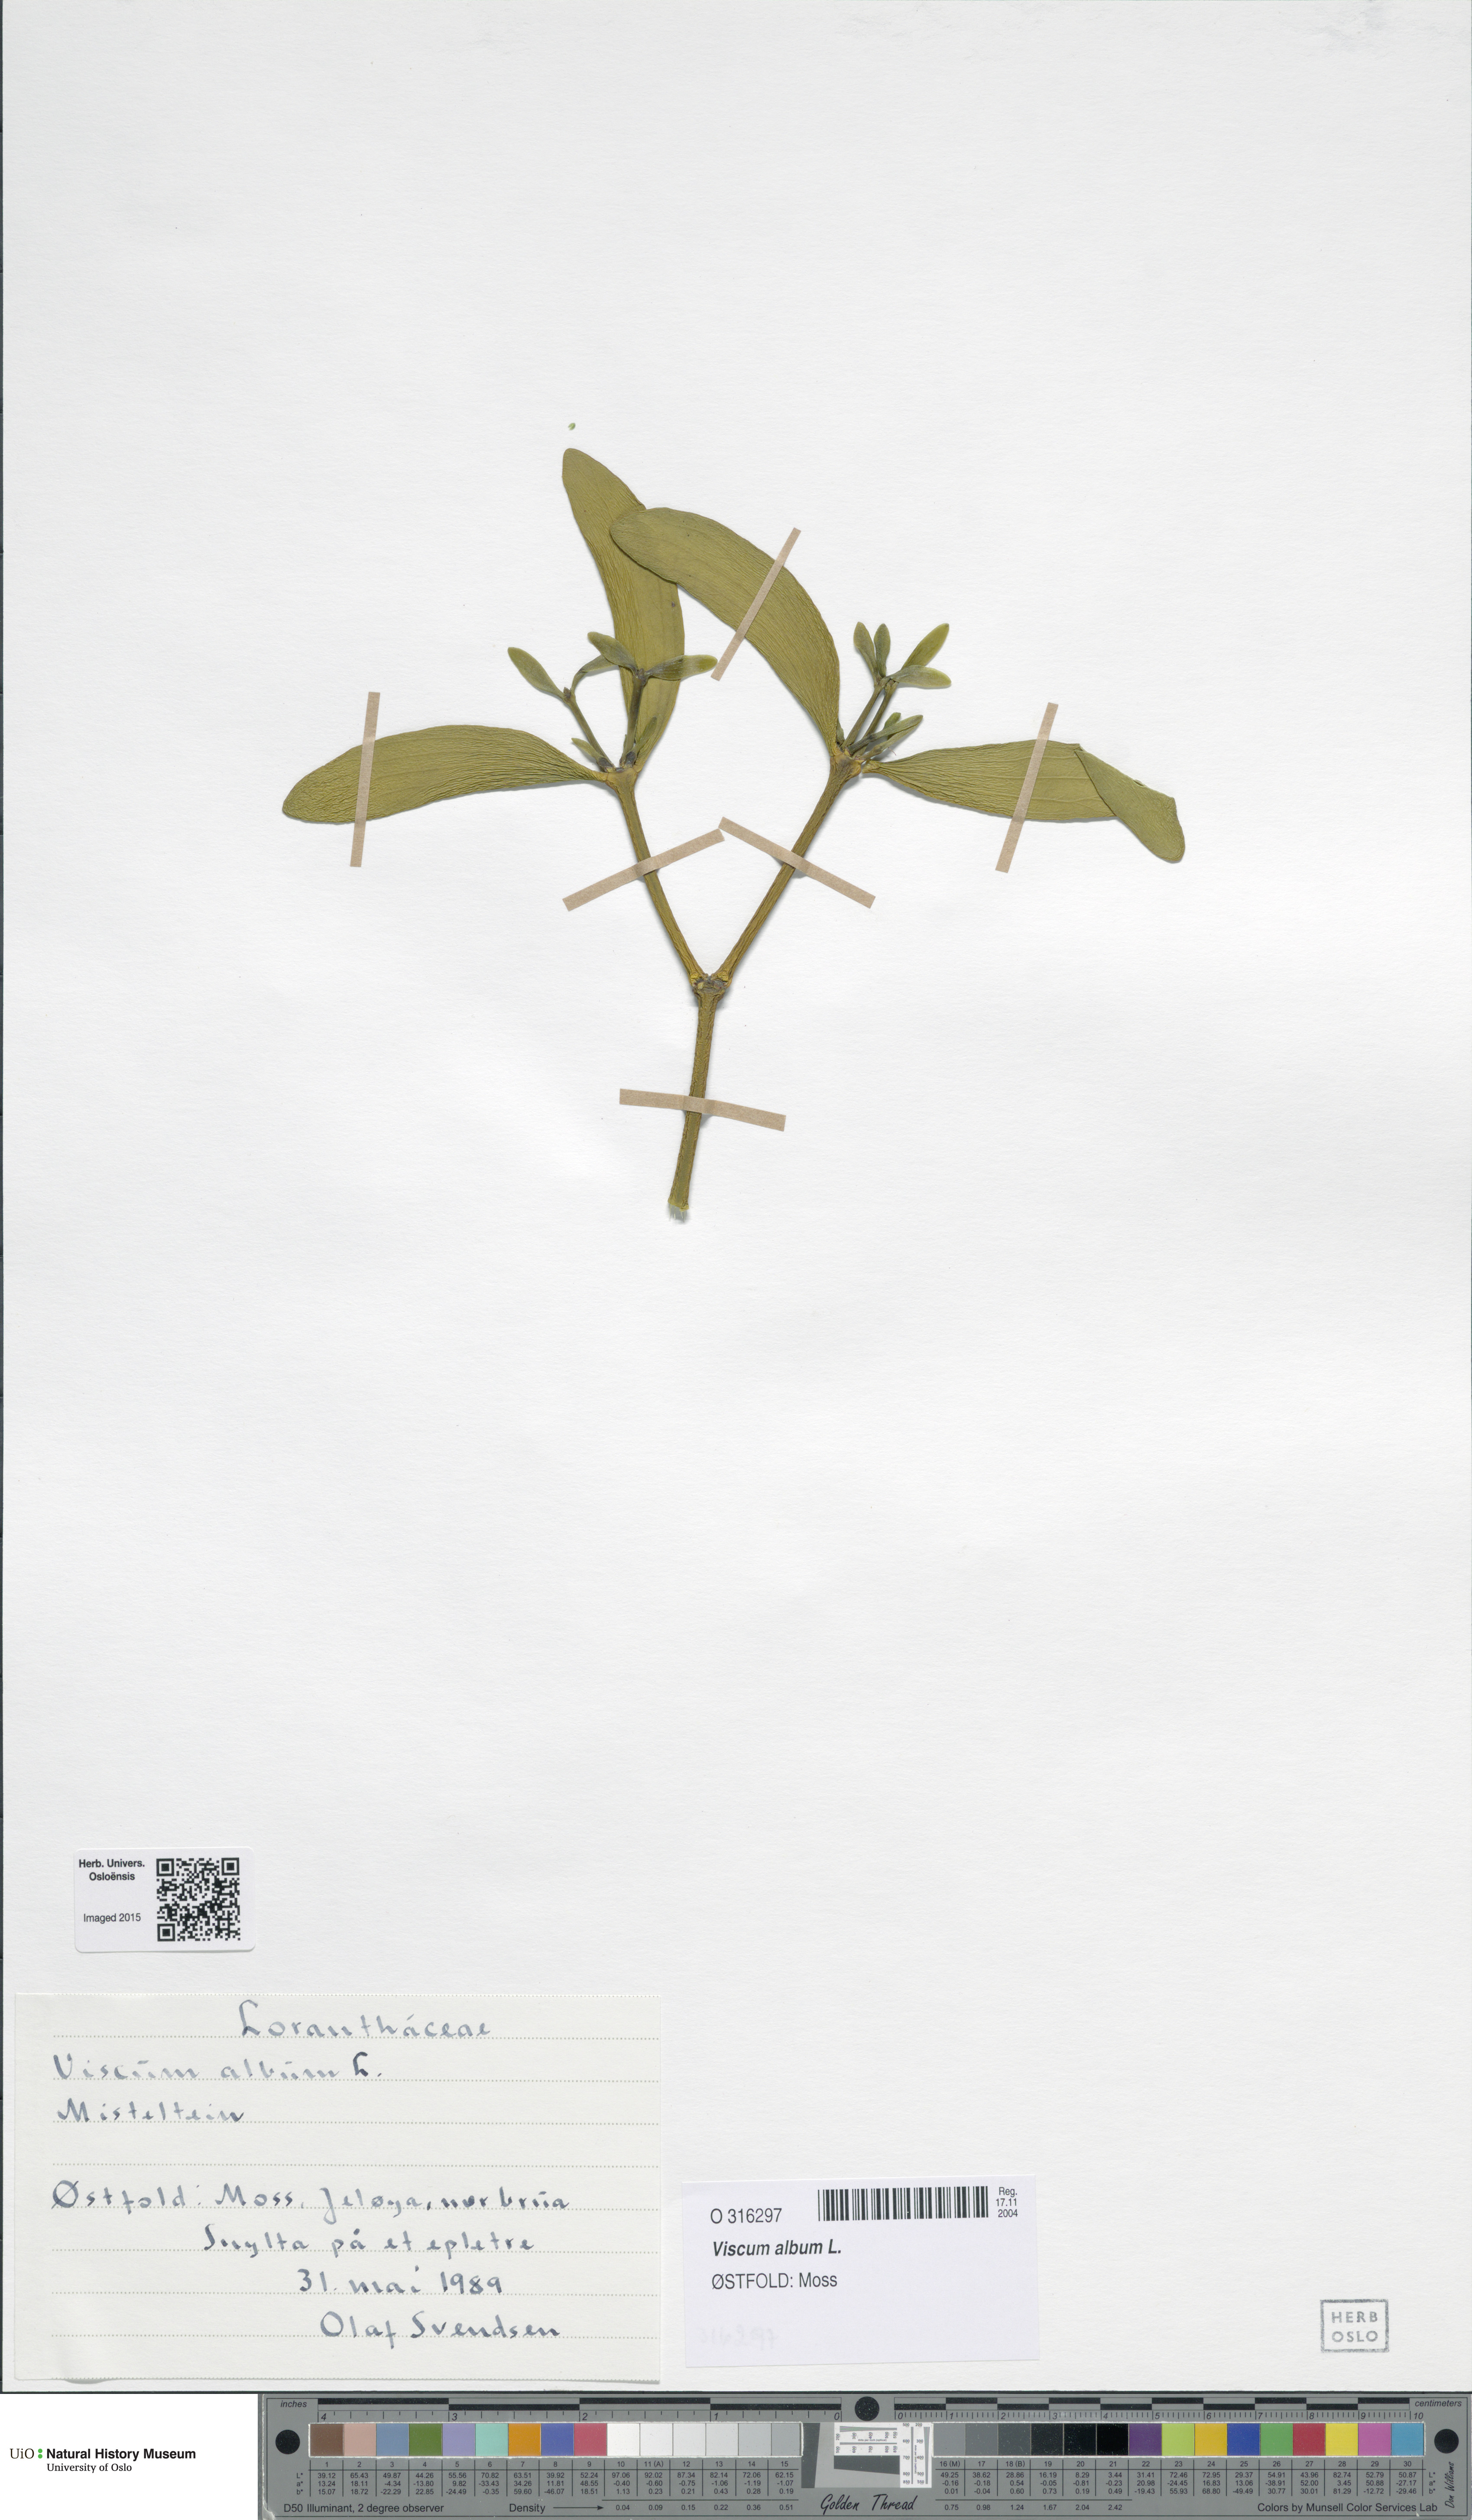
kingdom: Plantae
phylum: Tracheophyta
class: Magnoliopsida
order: Santalales
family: Viscaceae
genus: Viscum
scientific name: Viscum album
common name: Mistletoe
